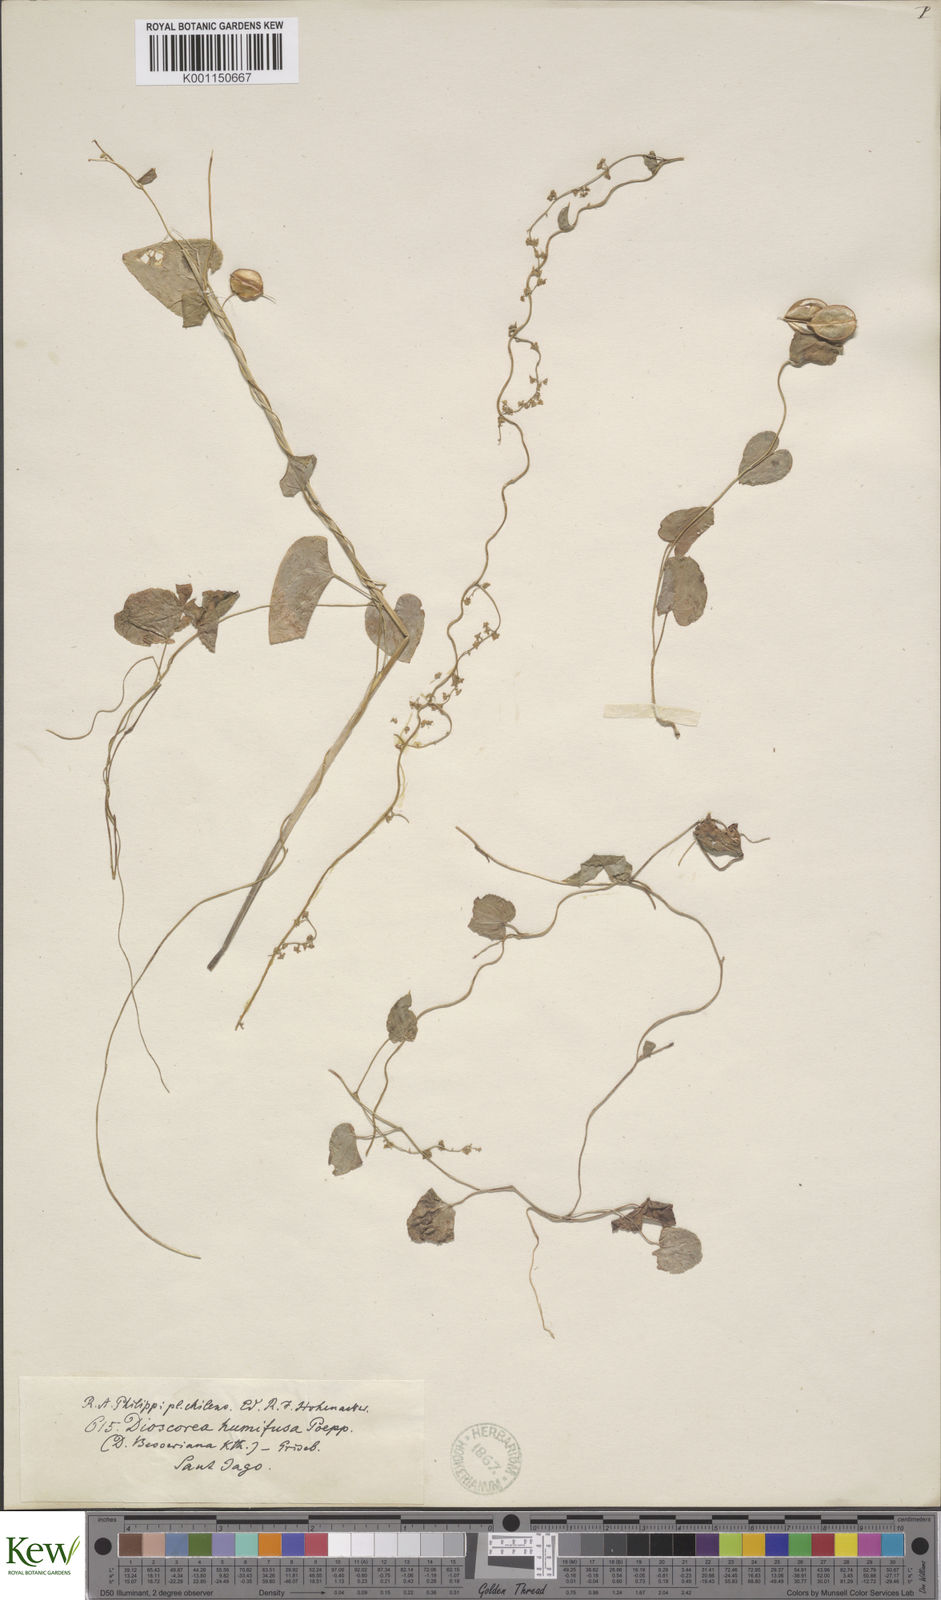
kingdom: Plantae
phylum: Tracheophyta
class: Liliopsida
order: Dioscoreales
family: Dioscoreaceae
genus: Dioscorea
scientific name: Dioscorea obtusifolia
